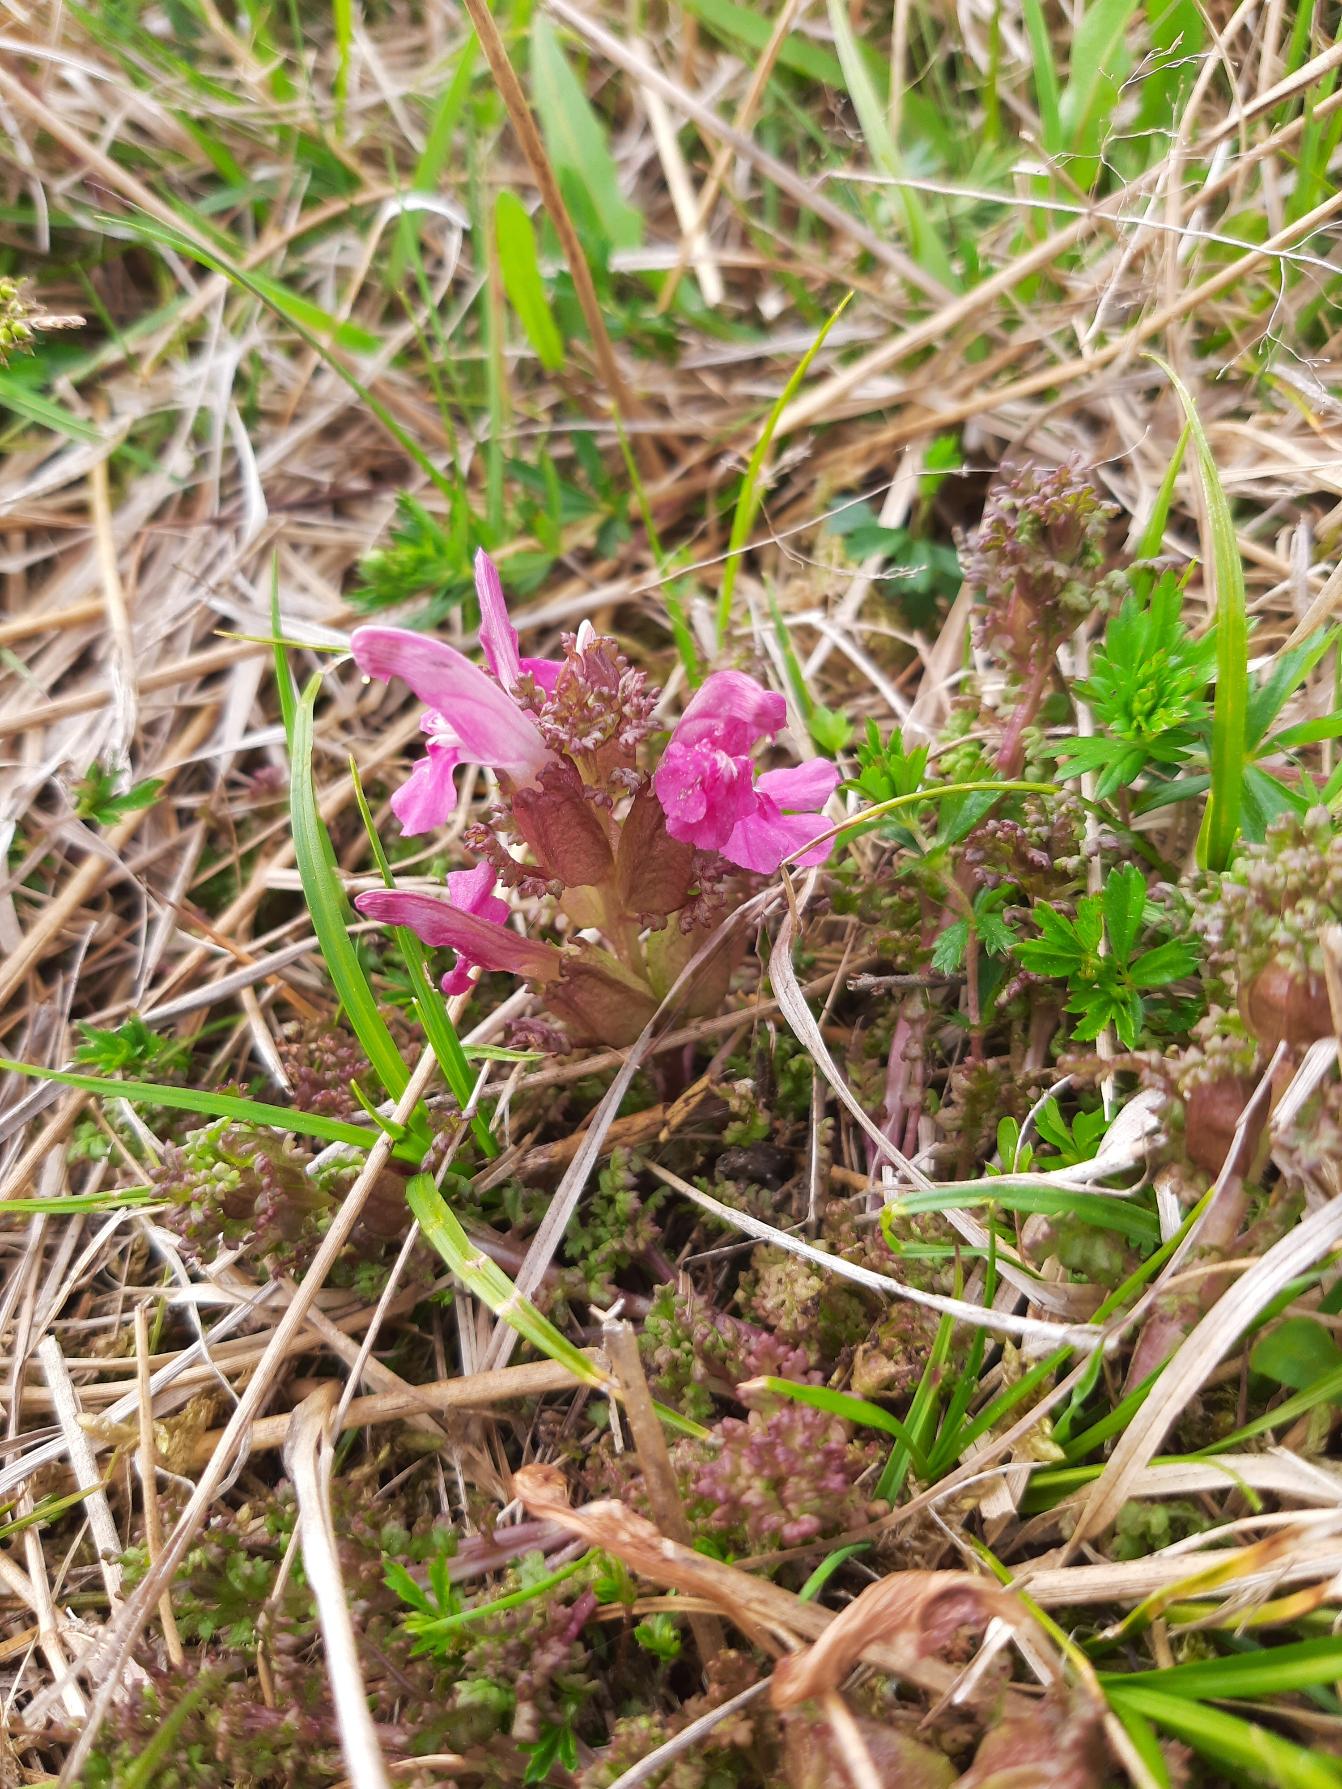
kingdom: Plantae
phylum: Tracheophyta
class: Magnoliopsida
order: Lamiales
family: Orobanchaceae
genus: Pedicularis
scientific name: Pedicularis sylvatica
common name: Mose-troldurt
